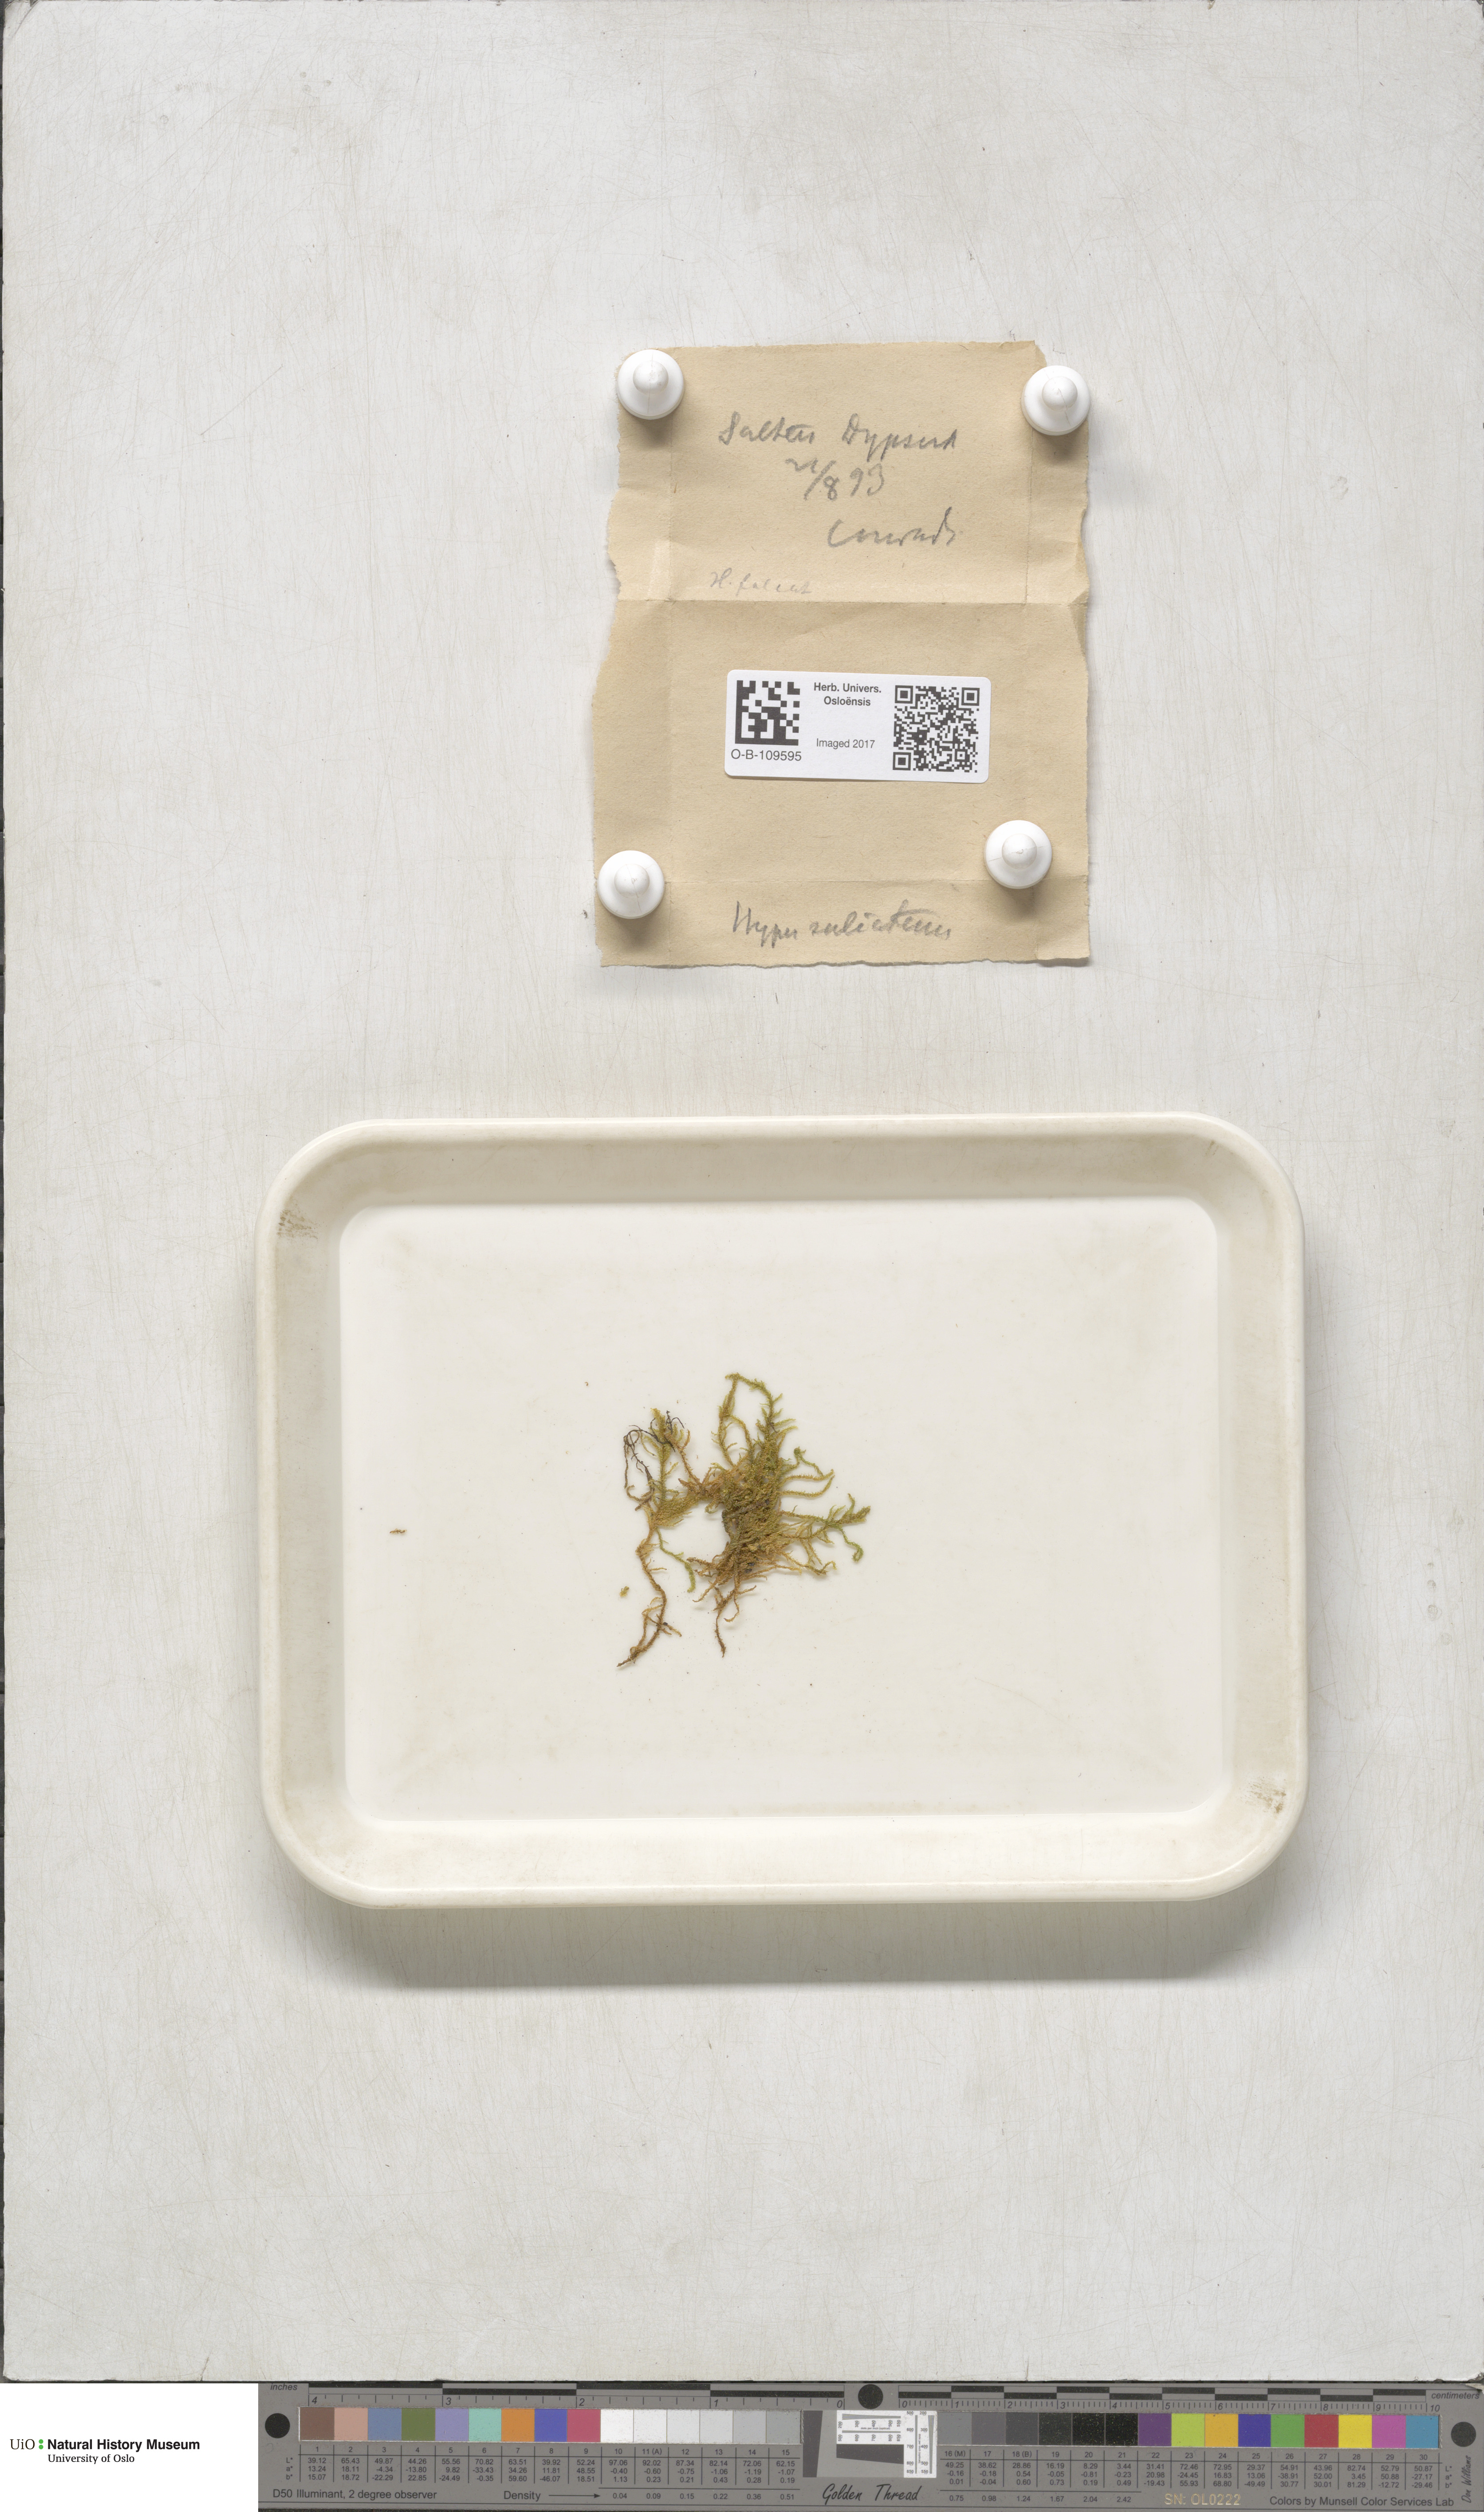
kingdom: Plantae
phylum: Bryophyta
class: Bryopsida
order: Hypnales
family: Amblystegiaceae
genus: Palustriella
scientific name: Palustriella commutata
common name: Curled hook-moss
